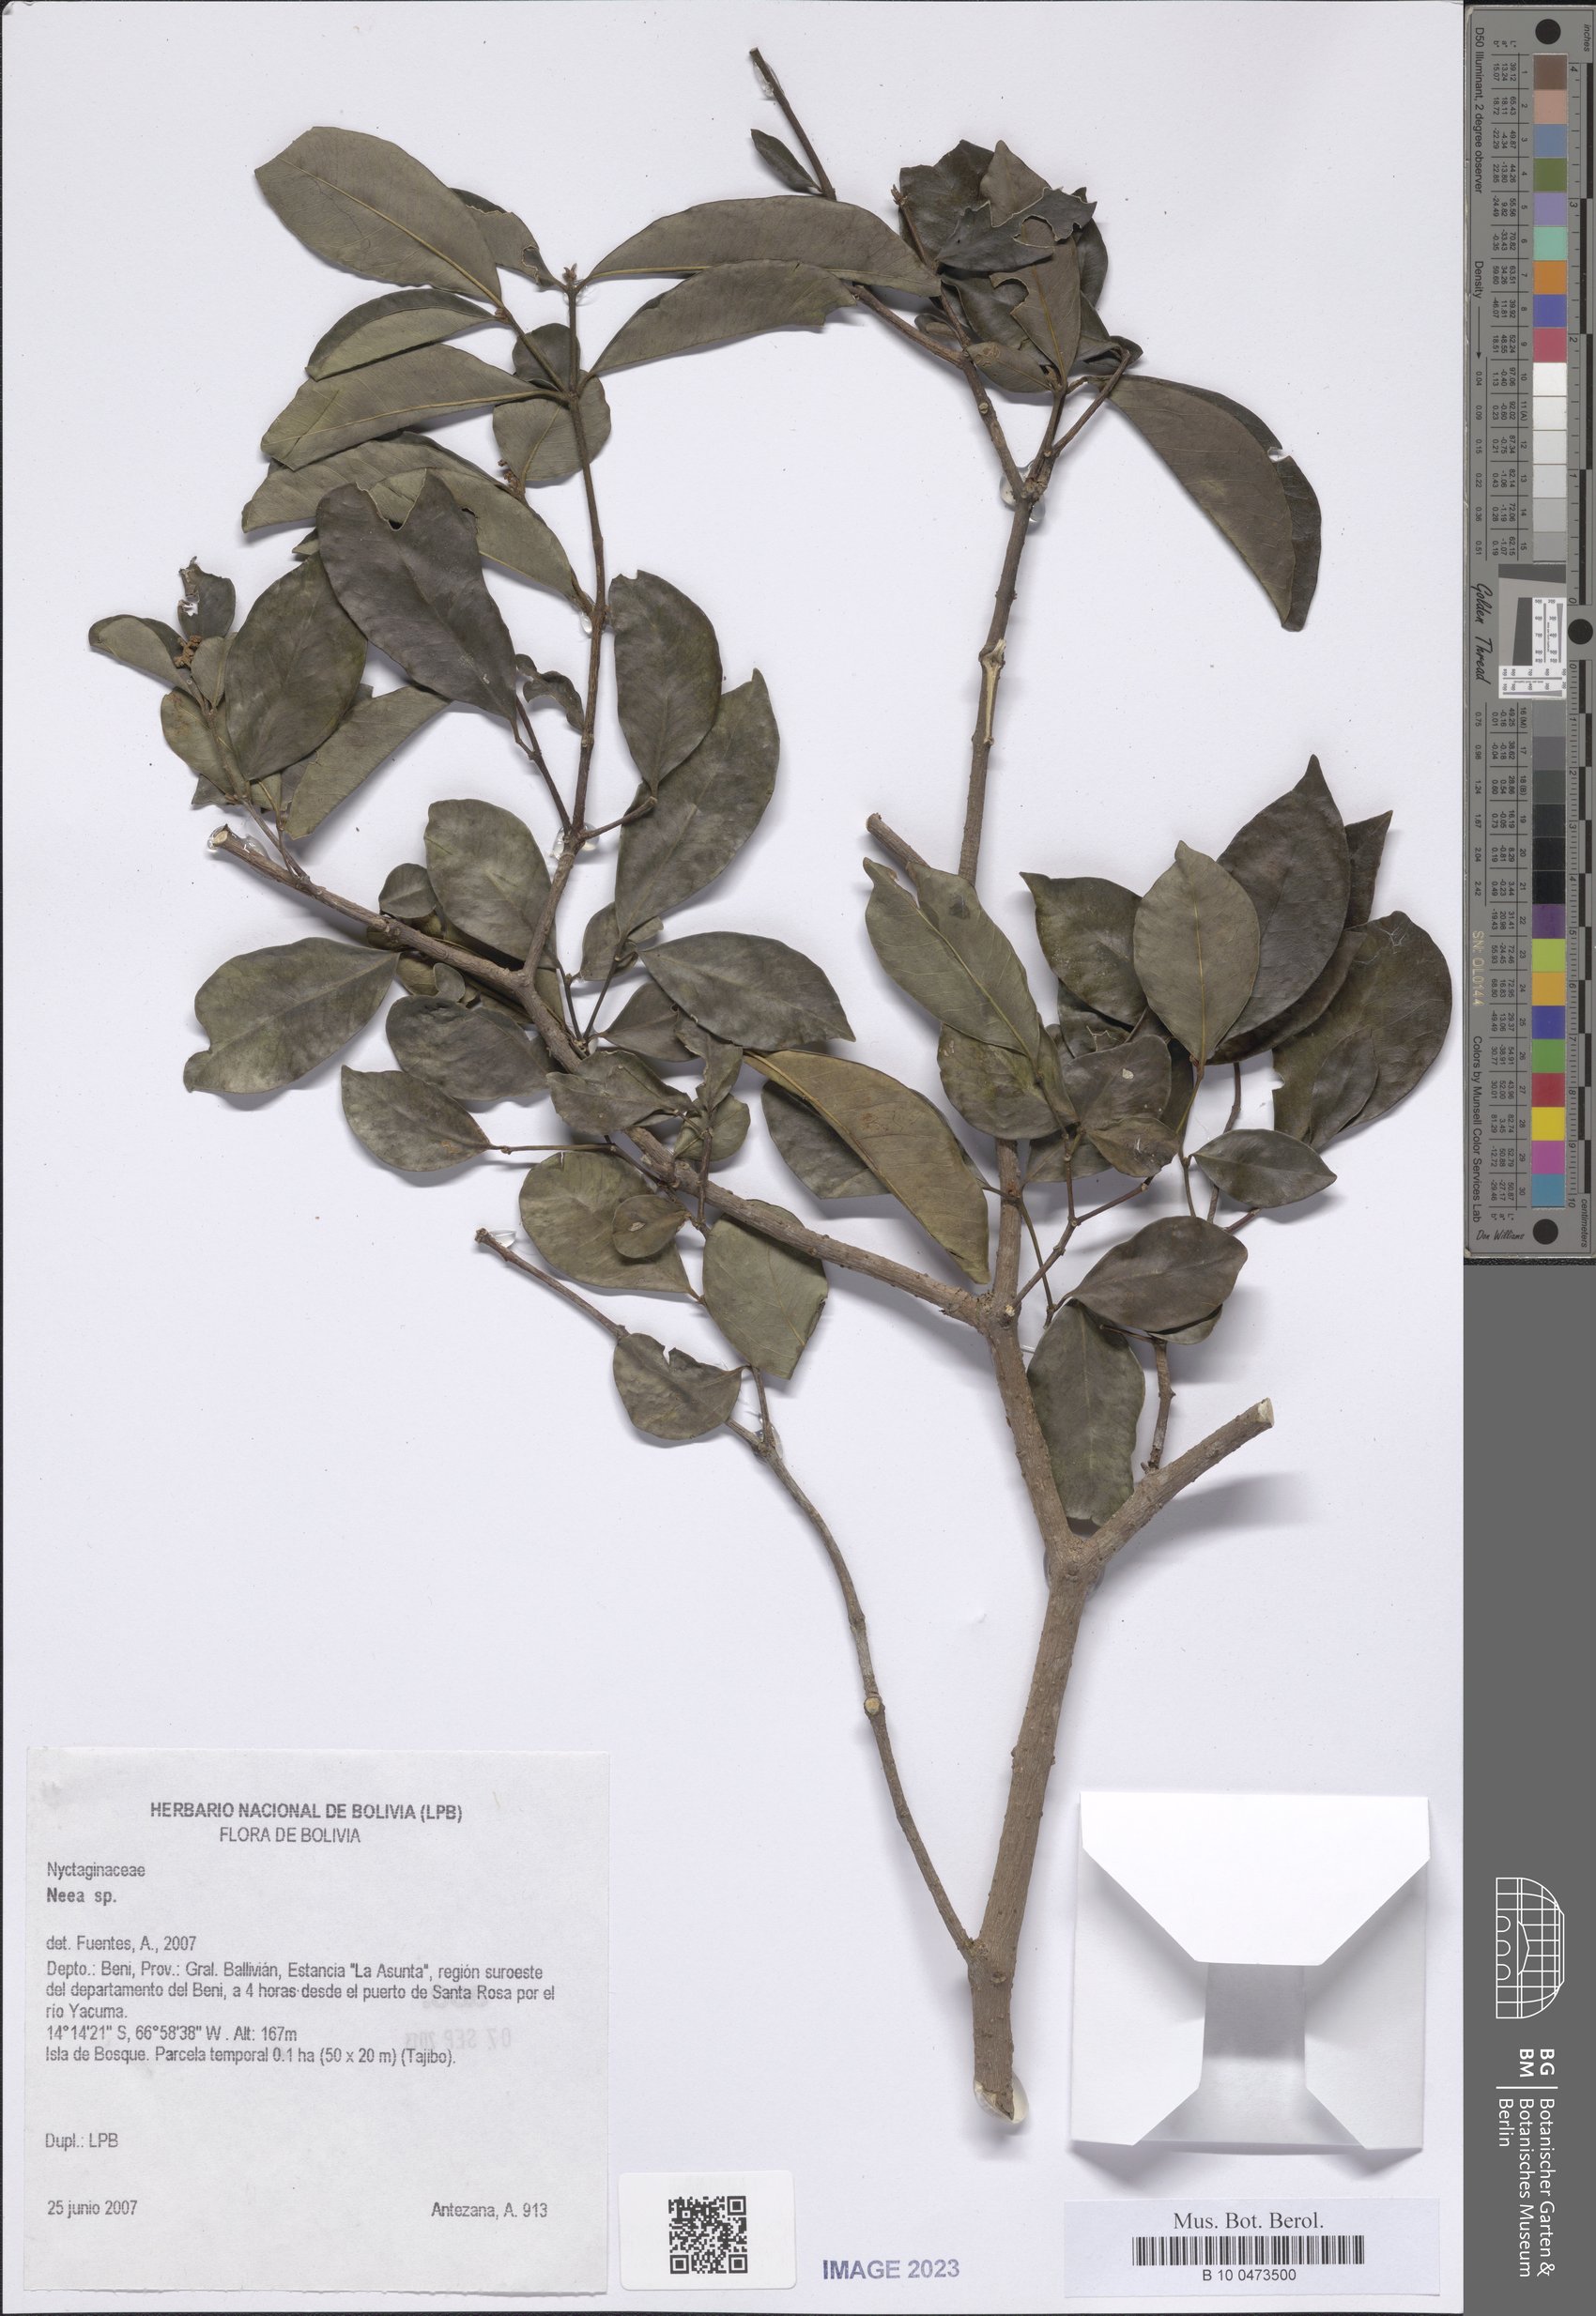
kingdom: Plantae
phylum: Tracheophyta
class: Magnoliopsida
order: Caryophyllales
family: Nyctaginaceae
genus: Neea
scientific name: Neea
